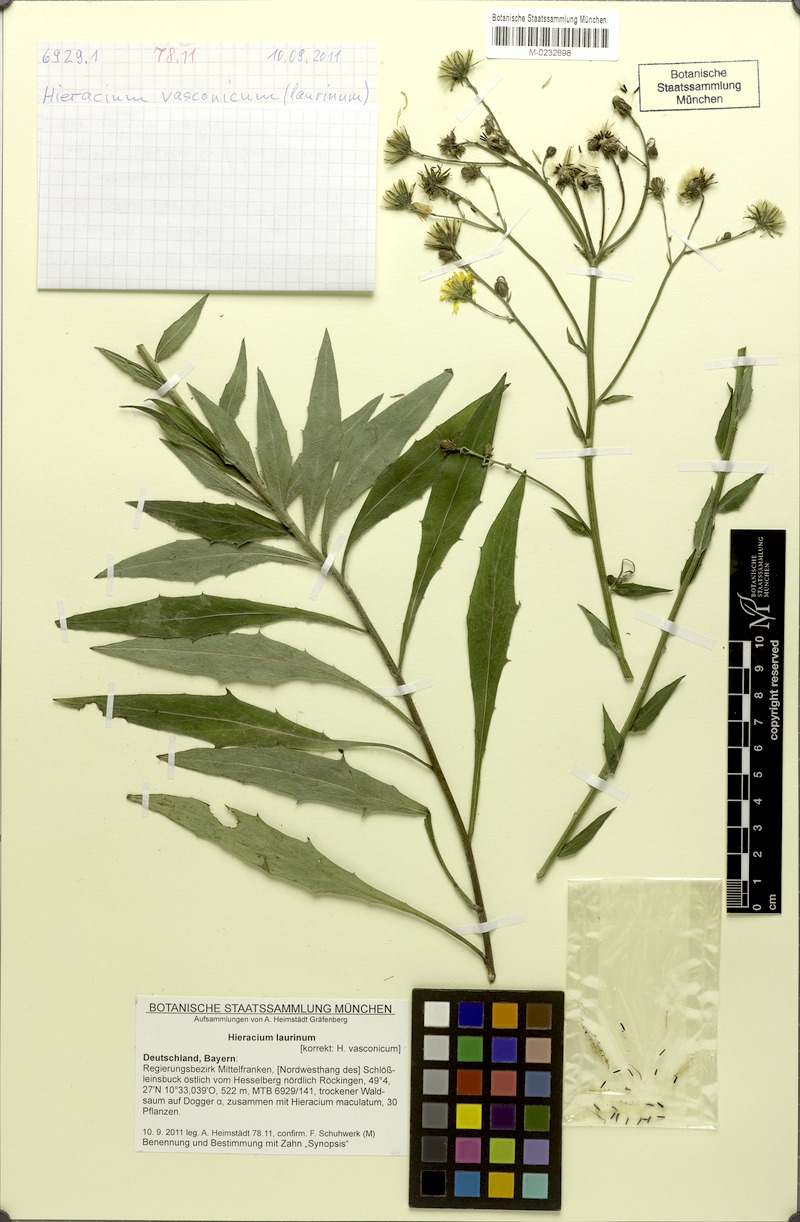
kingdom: Plantae
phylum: Tracheophyta
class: Magnoliopsida
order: Asterales
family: Asteraceae
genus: Hieracium
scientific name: Hieracium vasconicum
